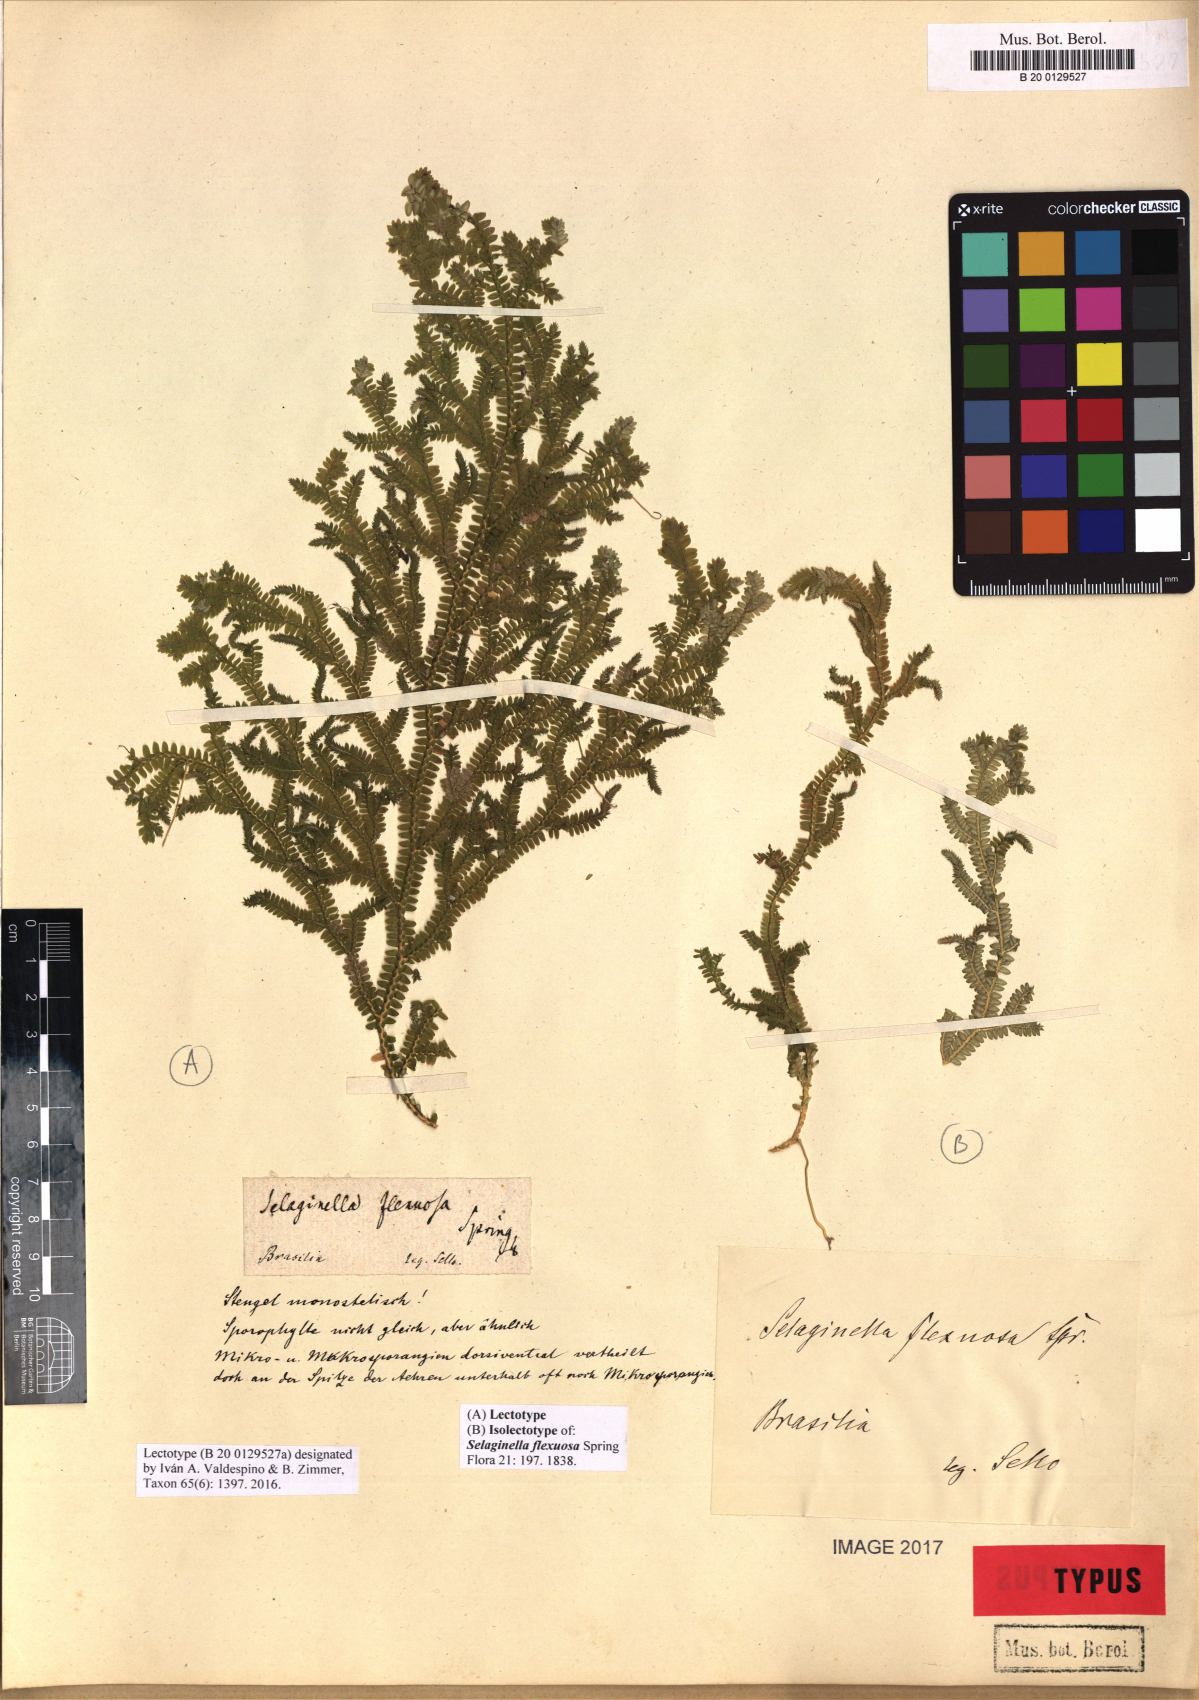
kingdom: Plantae
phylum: Tracheophyta
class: Lycopodiopsida
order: Selaginellales
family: Selaginellaceae
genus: Selaginella
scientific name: Selaginella flexuosa
